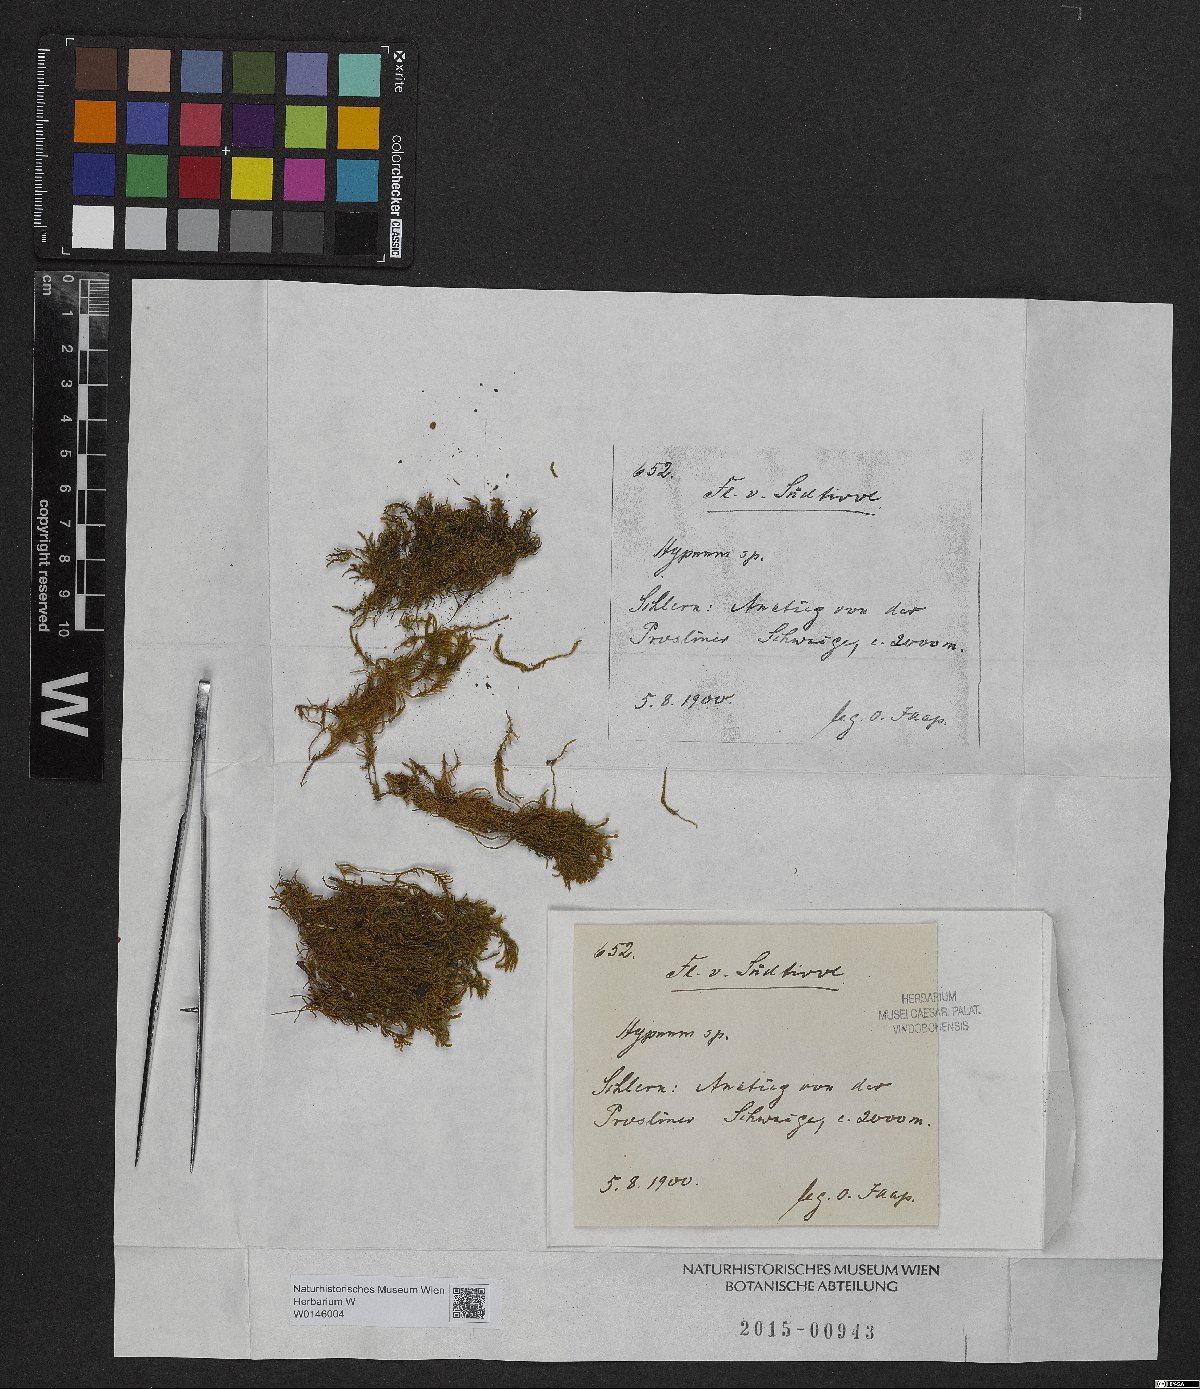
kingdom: Plantae
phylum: Bryophyta
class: Bryopsida
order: Hypnales
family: Hypnaceae
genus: Hypnum
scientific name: Hypnum
